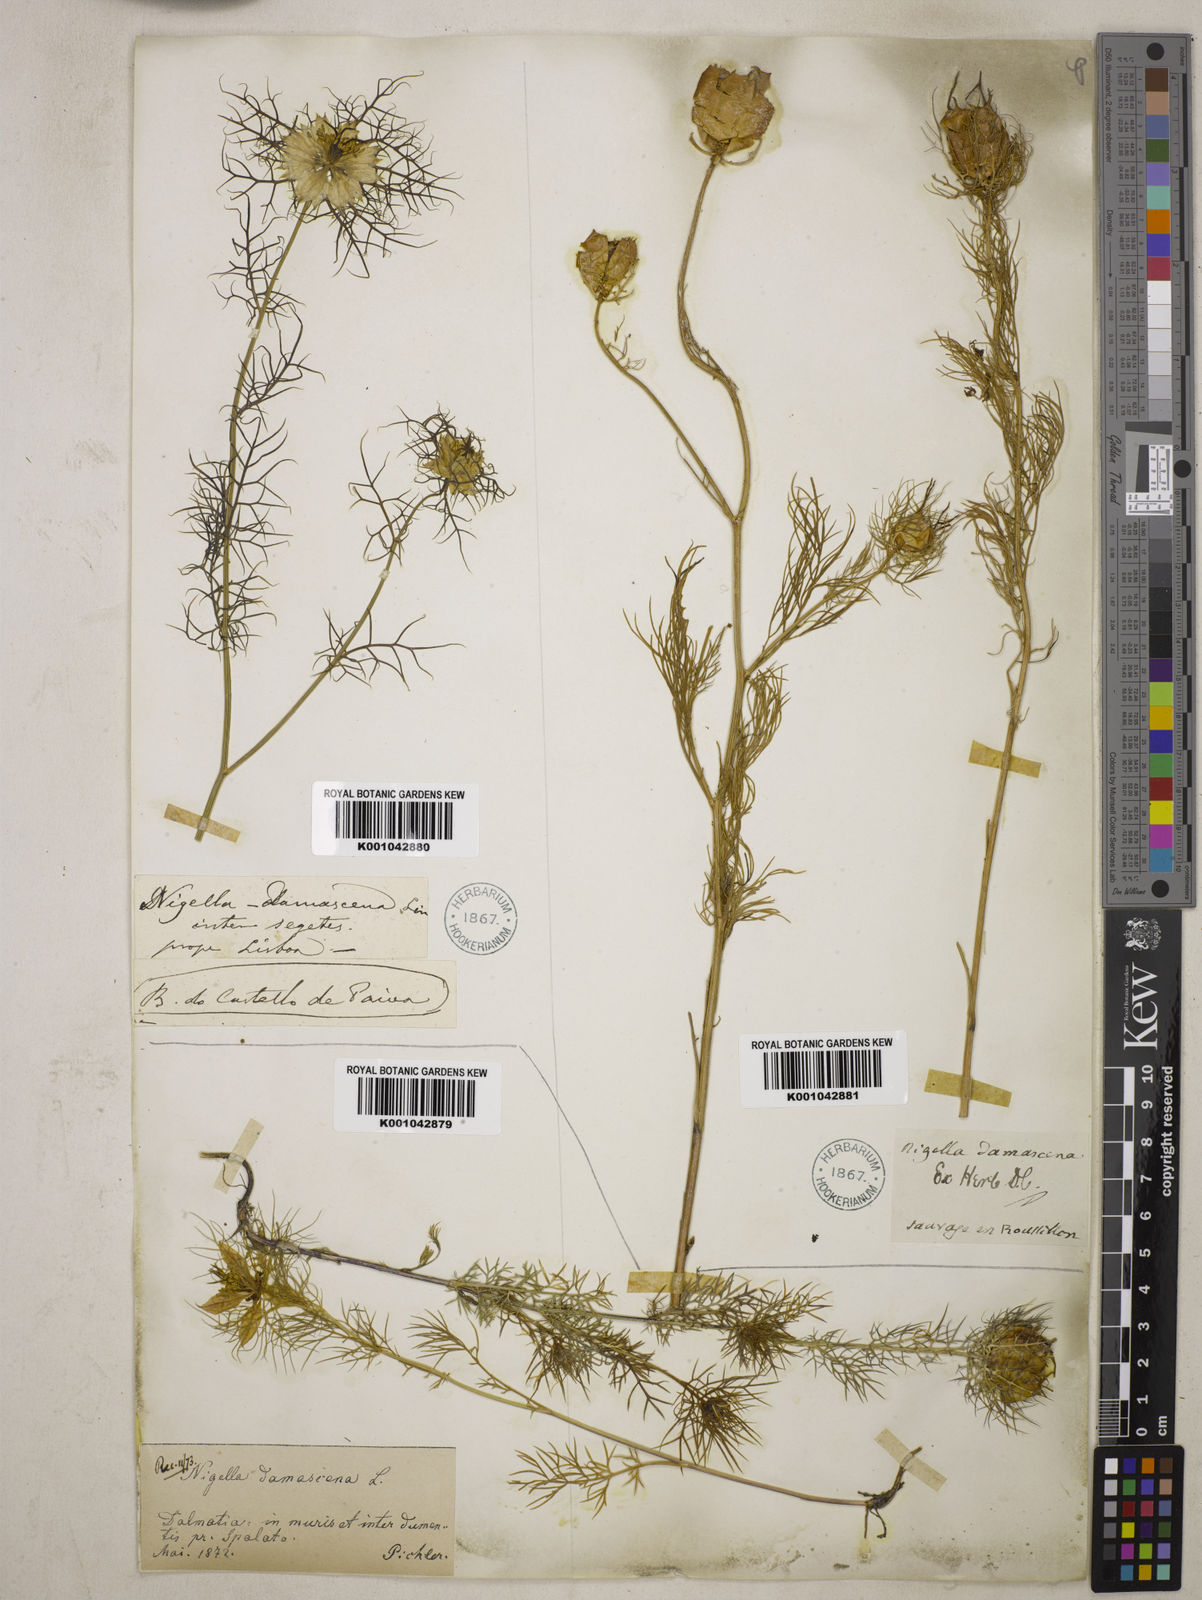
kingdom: Plantae
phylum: Tracheophyta
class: Magnoliopsida
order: Ranunculales
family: Ranunculaceae
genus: Nigella
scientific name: Nigella damascena
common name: Love-in-a-mist
